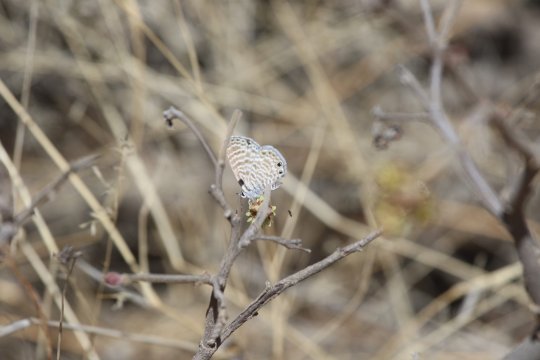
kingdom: Animalia
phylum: Arthropoda
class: Insecta
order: Lepidoptera
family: Lycaenidae
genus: Leptotes
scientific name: Leptotes marina
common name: Marine Blue
